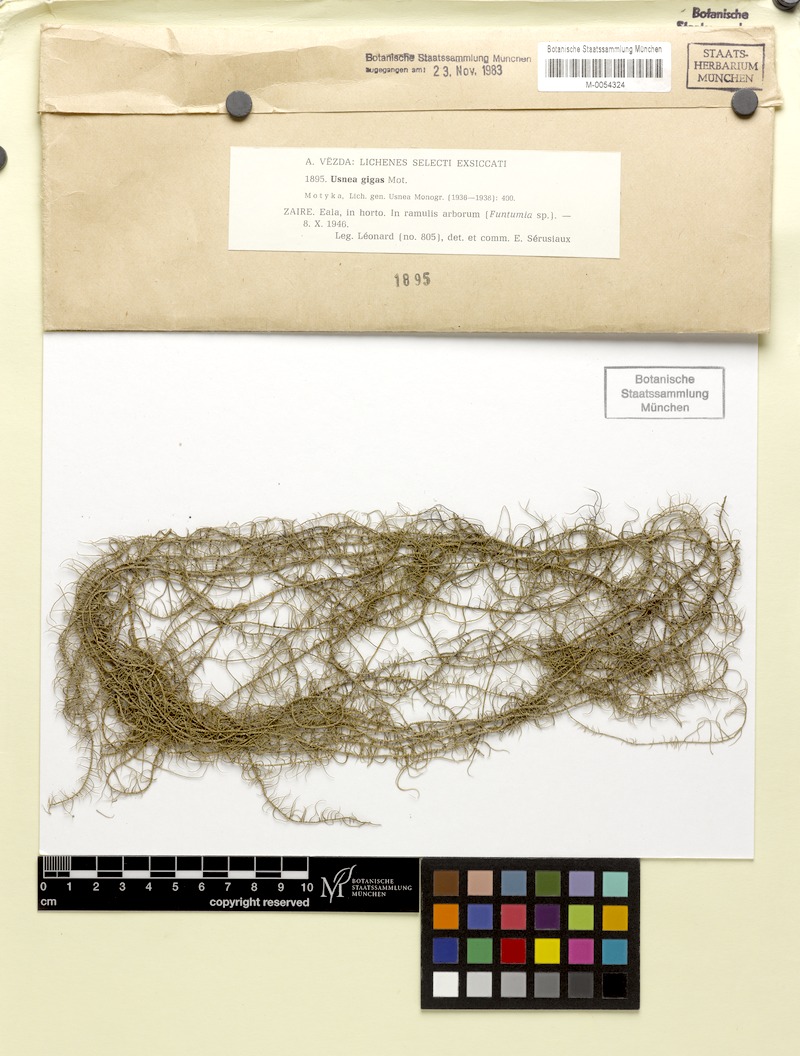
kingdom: Fungi
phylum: Ascomycota
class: Lecanoromycetes
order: Lecanorales
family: Parmeliaceae
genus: Usnea
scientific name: Usnea himantodes
